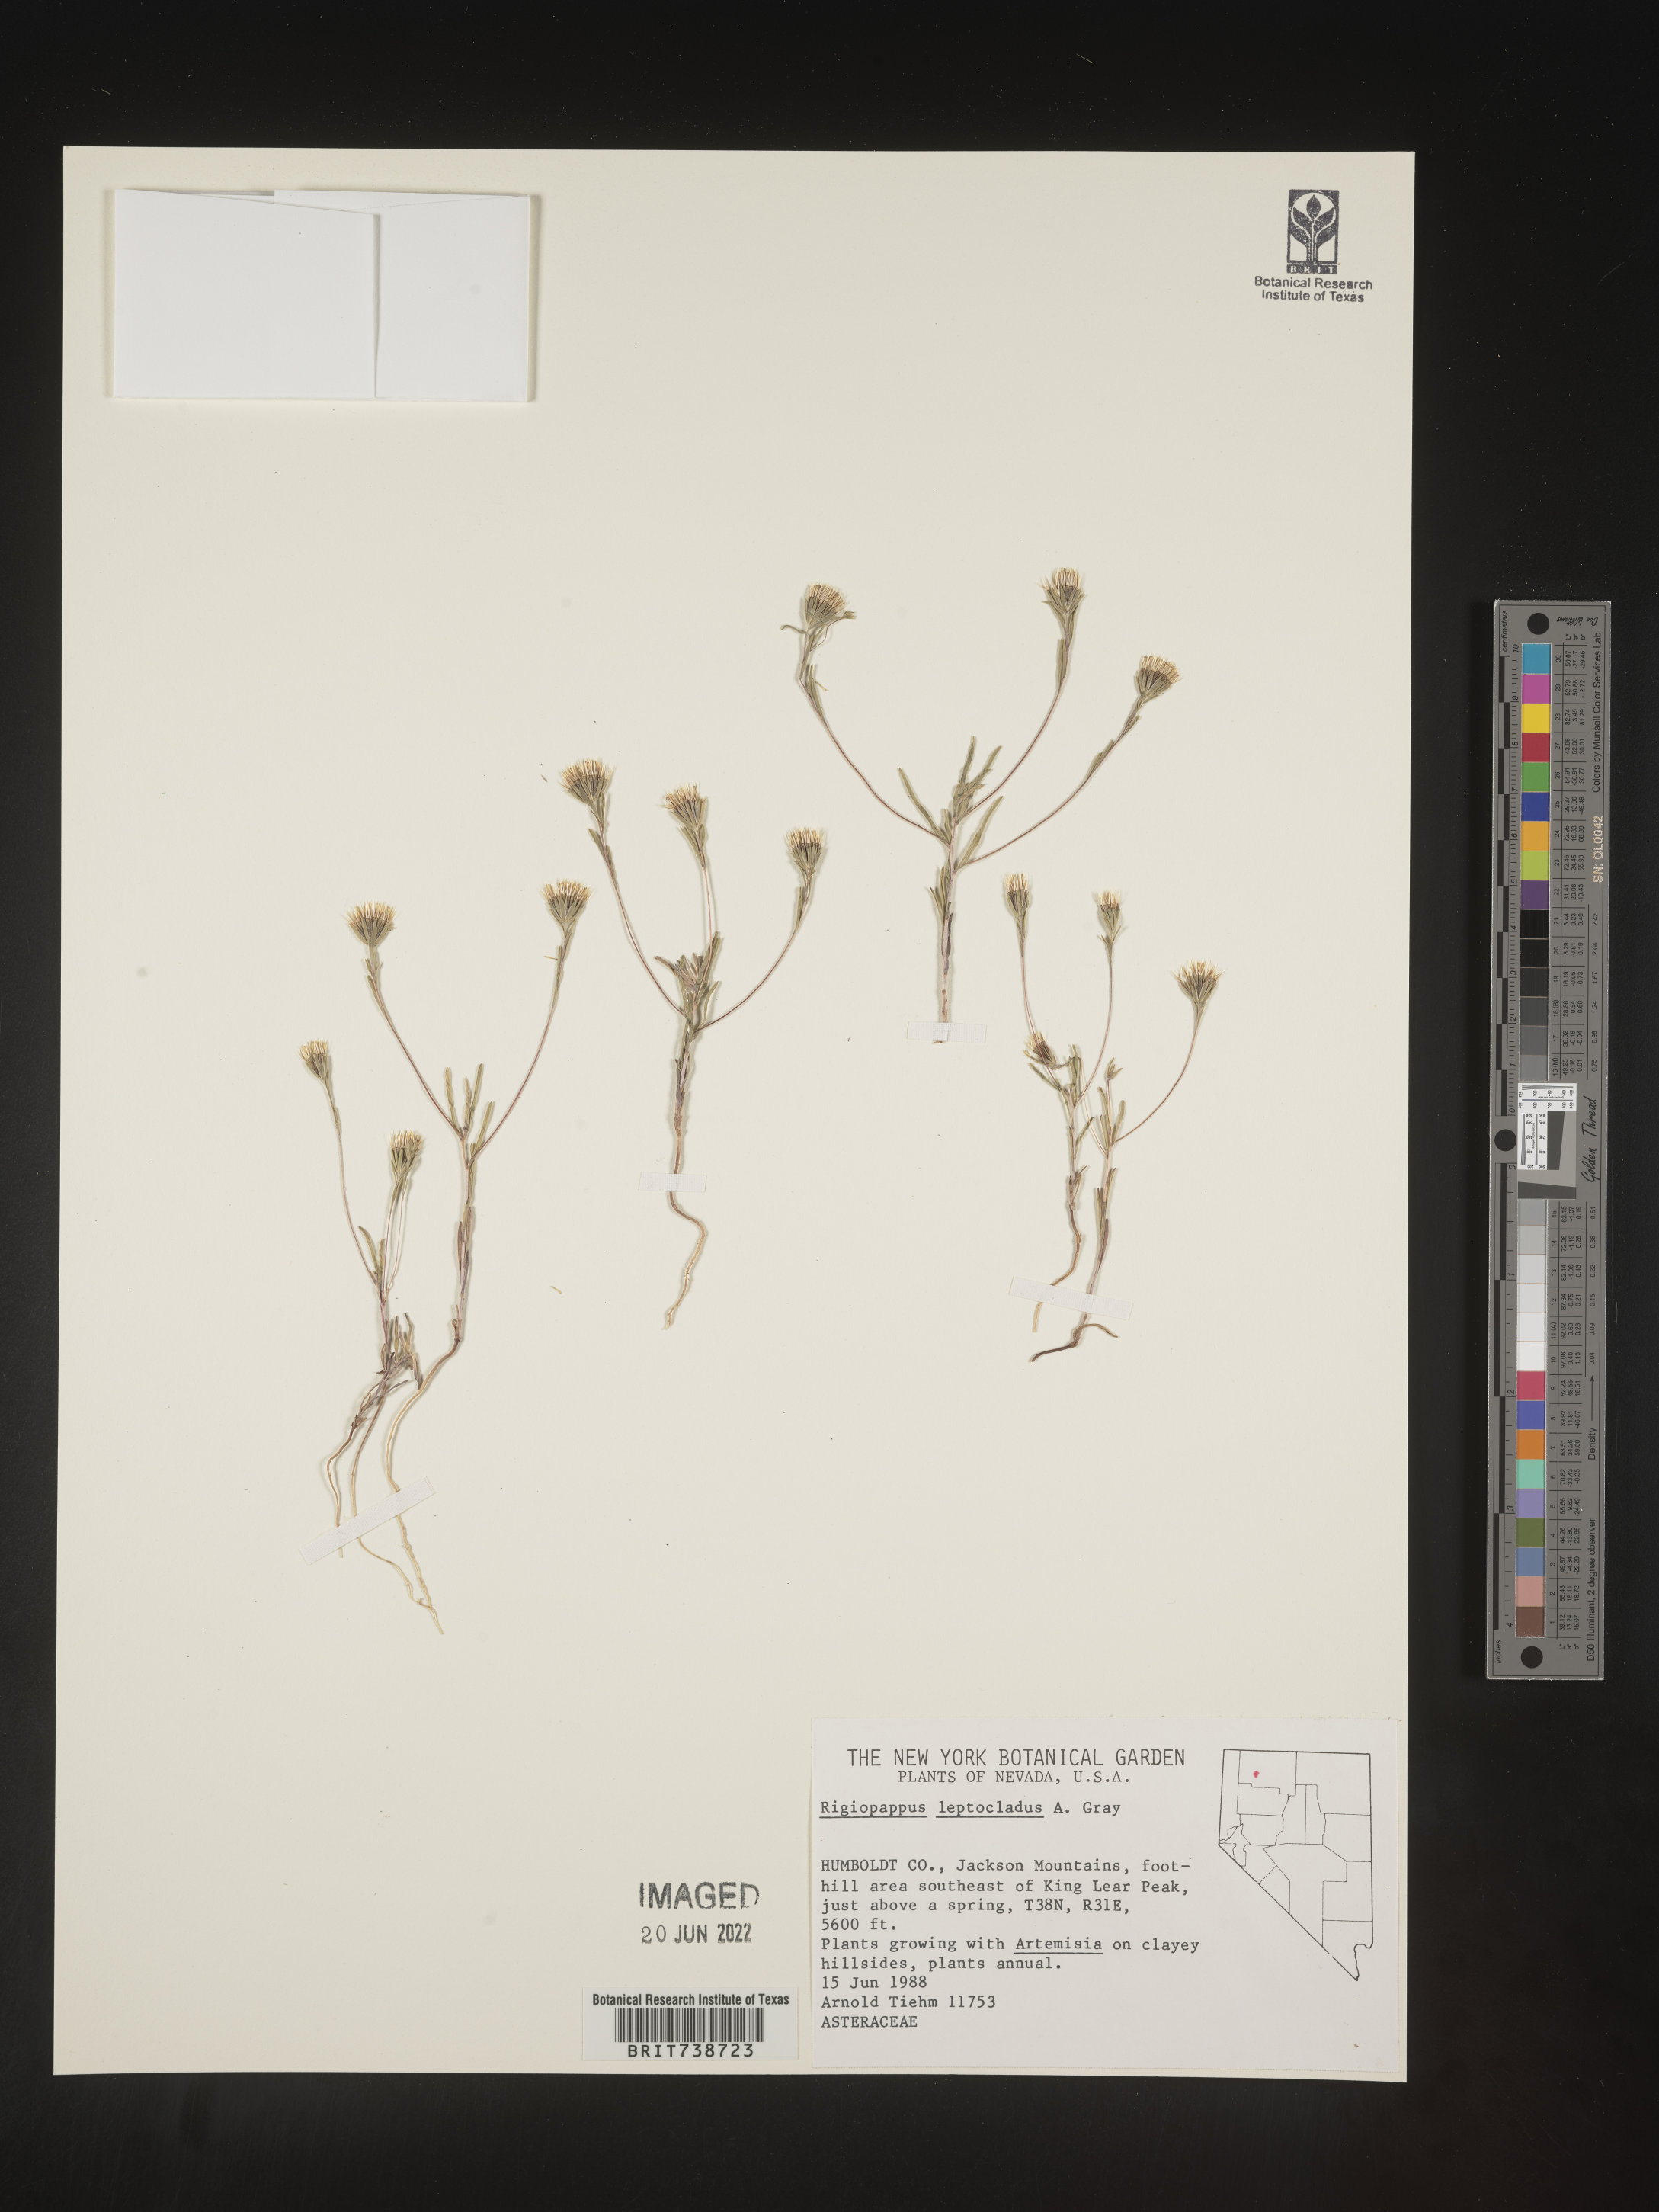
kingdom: Plantae
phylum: Tracheophyta
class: Magnoliopsida
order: Asterales
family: Asteraceae
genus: Rigiopappus
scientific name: Rigiopappus
